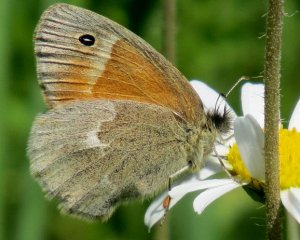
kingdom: Animalia
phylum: Arthropoda
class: Insecta
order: Lepidoptera
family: Nymphalidae
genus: Coenonympha
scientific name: Coenonympha tullia
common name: Large Heath
